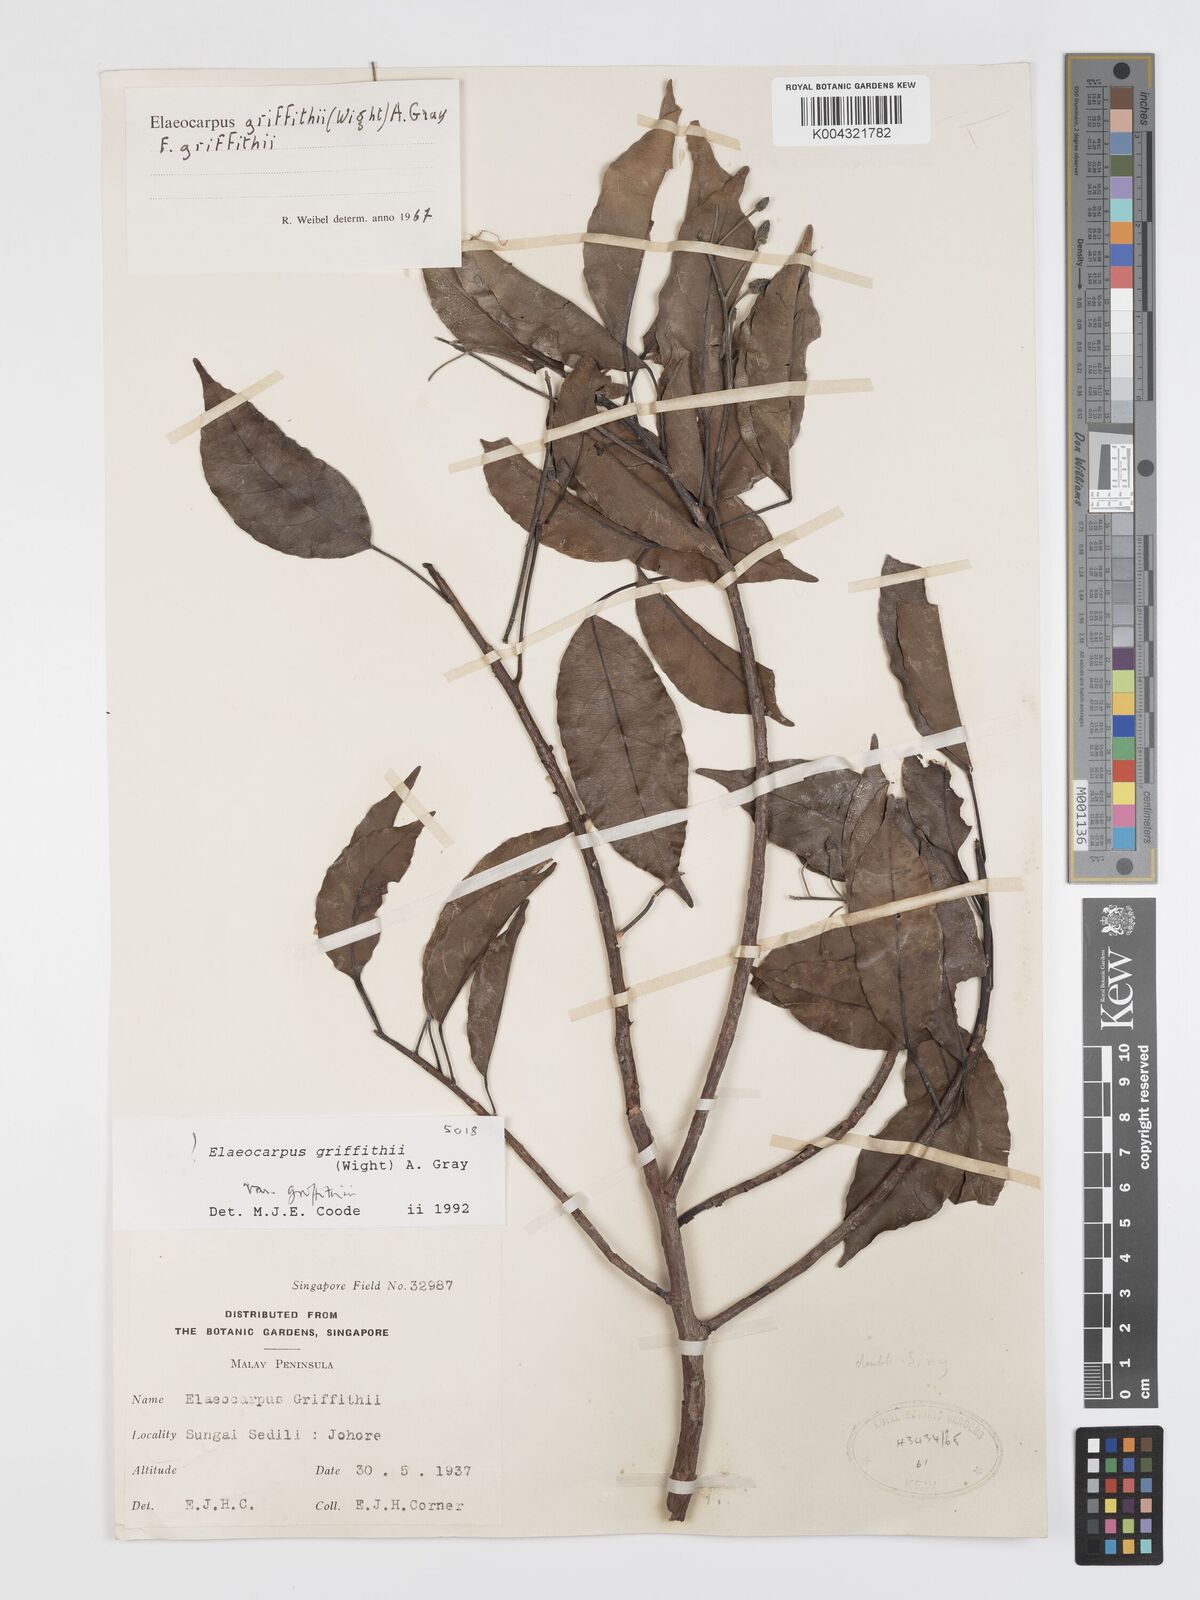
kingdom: Plantae
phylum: Tracheophyta
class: Magnoliopsida
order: Oxalidales
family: Elaeocarpaceae
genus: Elaeocarpus
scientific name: Elaeocarpus griffithii
